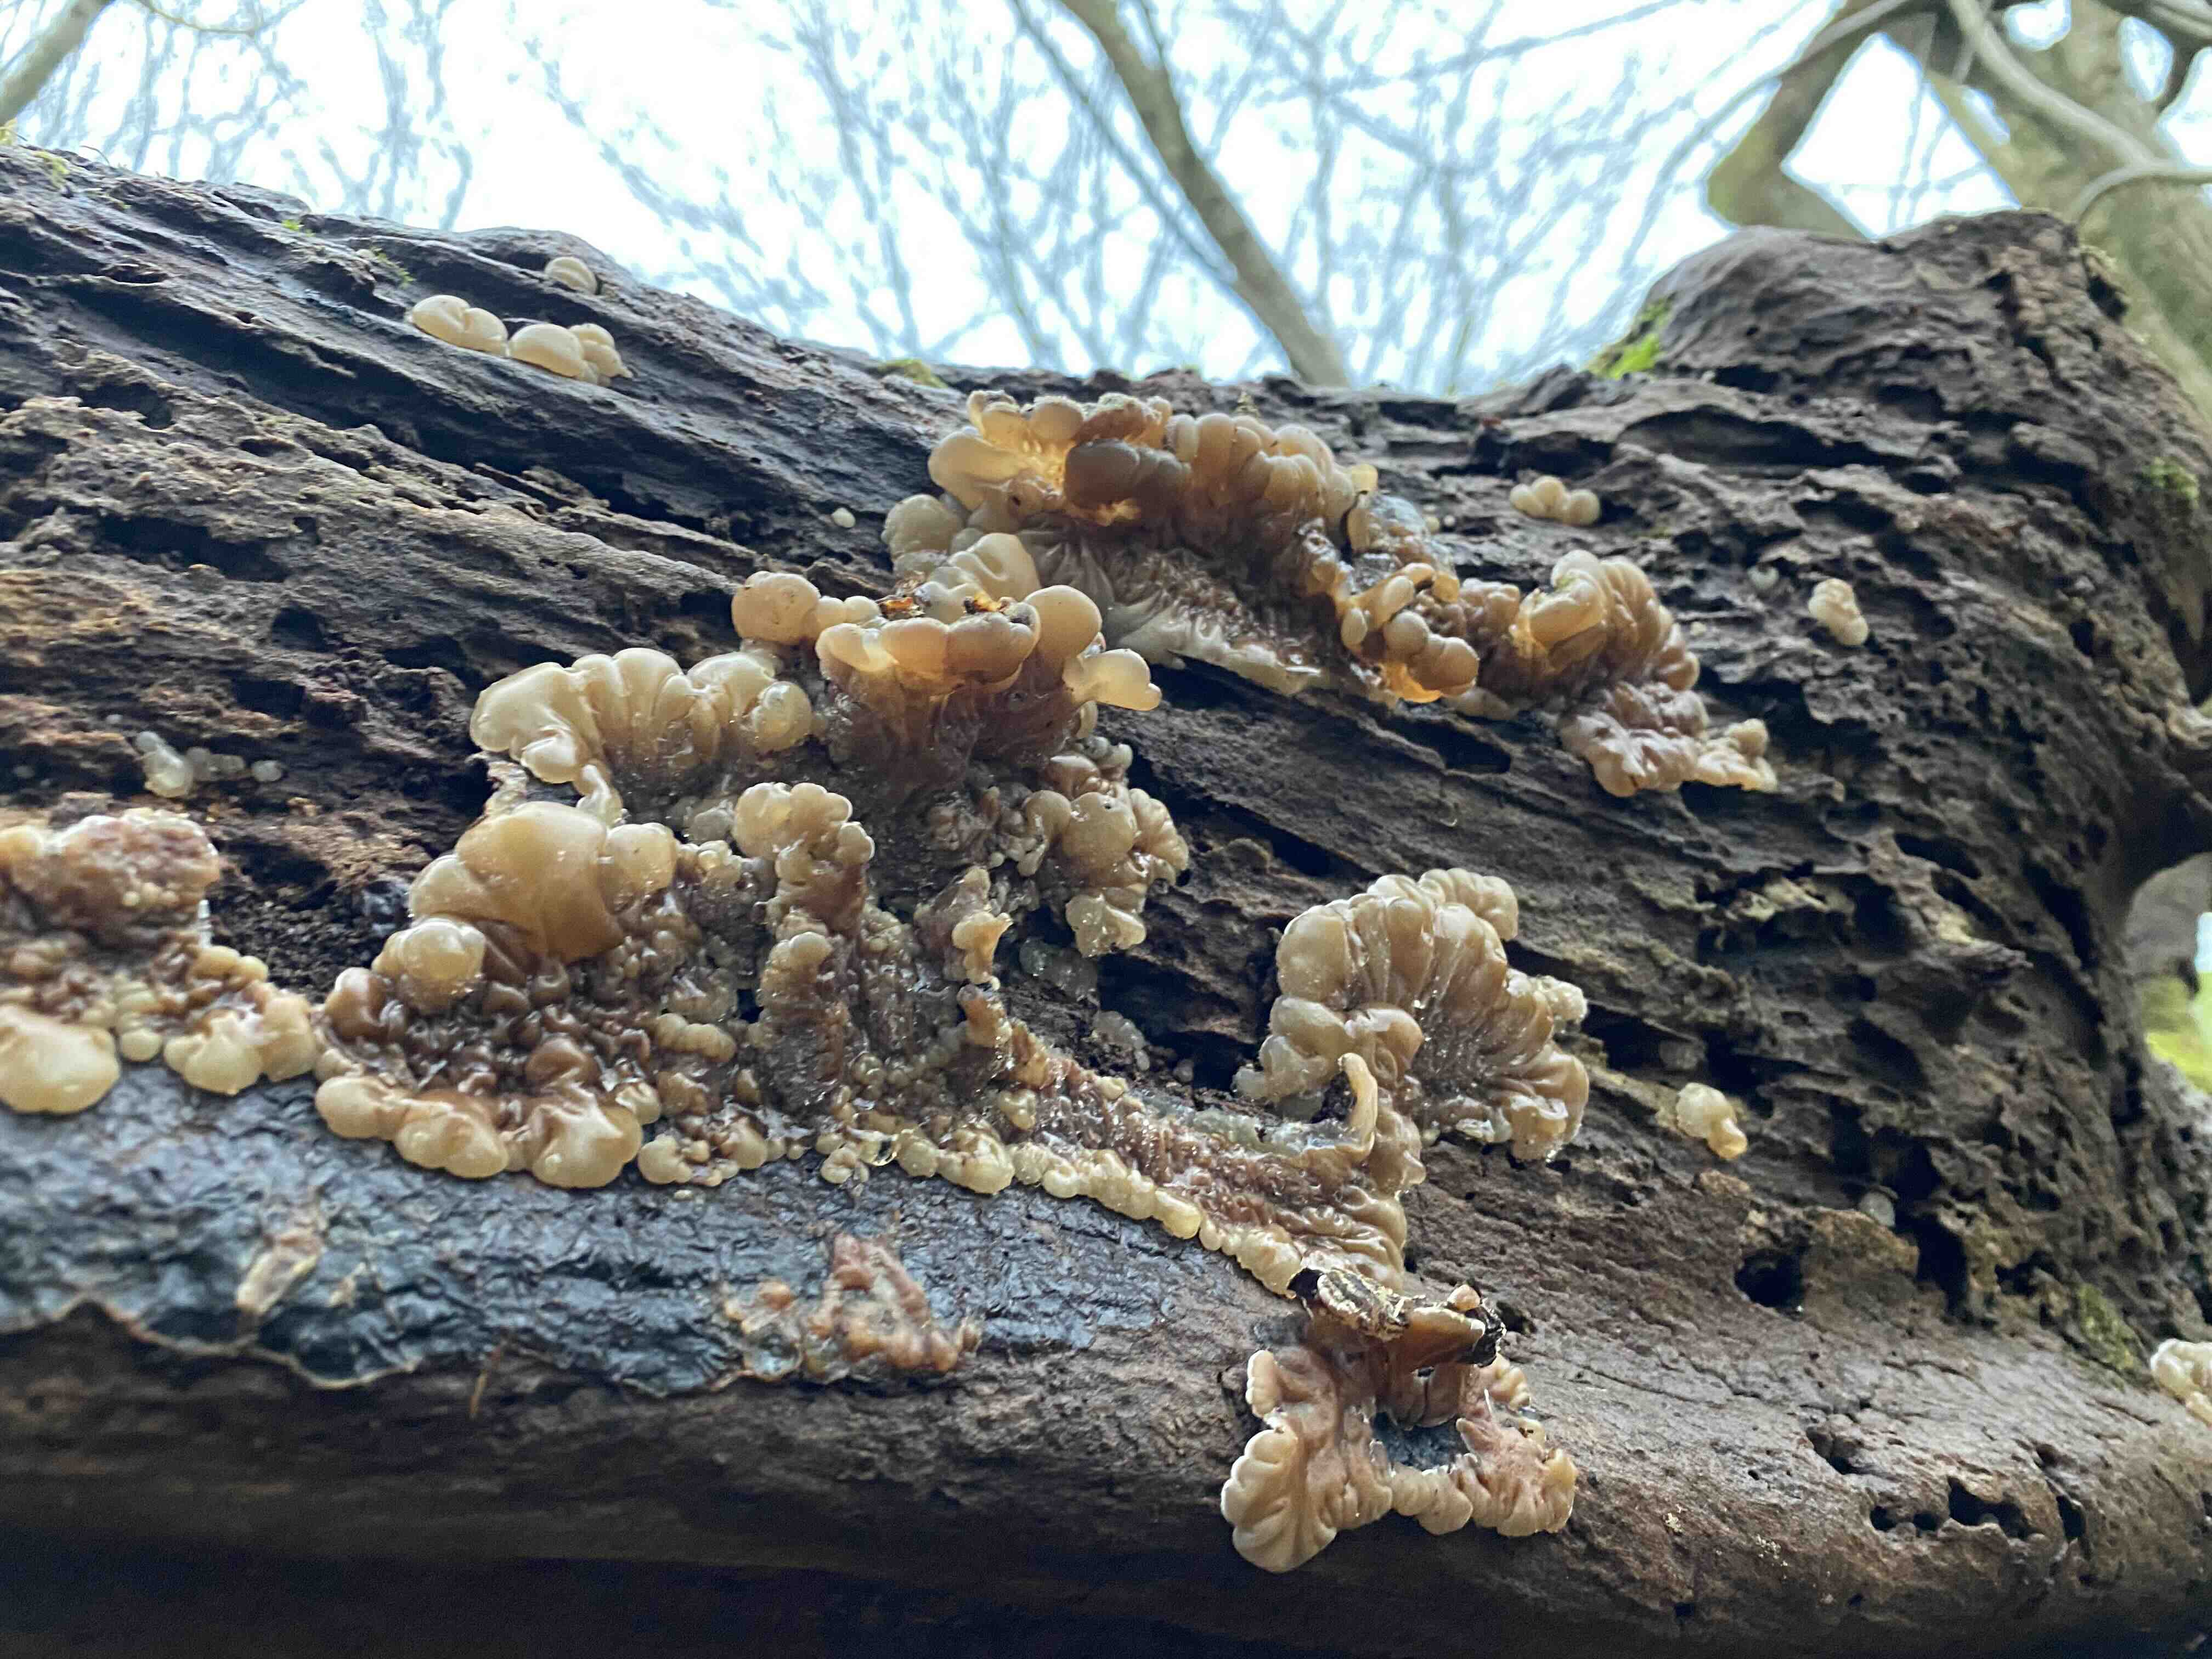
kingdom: Fungi
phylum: Basidiomycota
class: Agaricomycetes
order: Auriculariales
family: Auriculariaceae
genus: Auricularia
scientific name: Auricularia mesenterica
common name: håret judasøre
